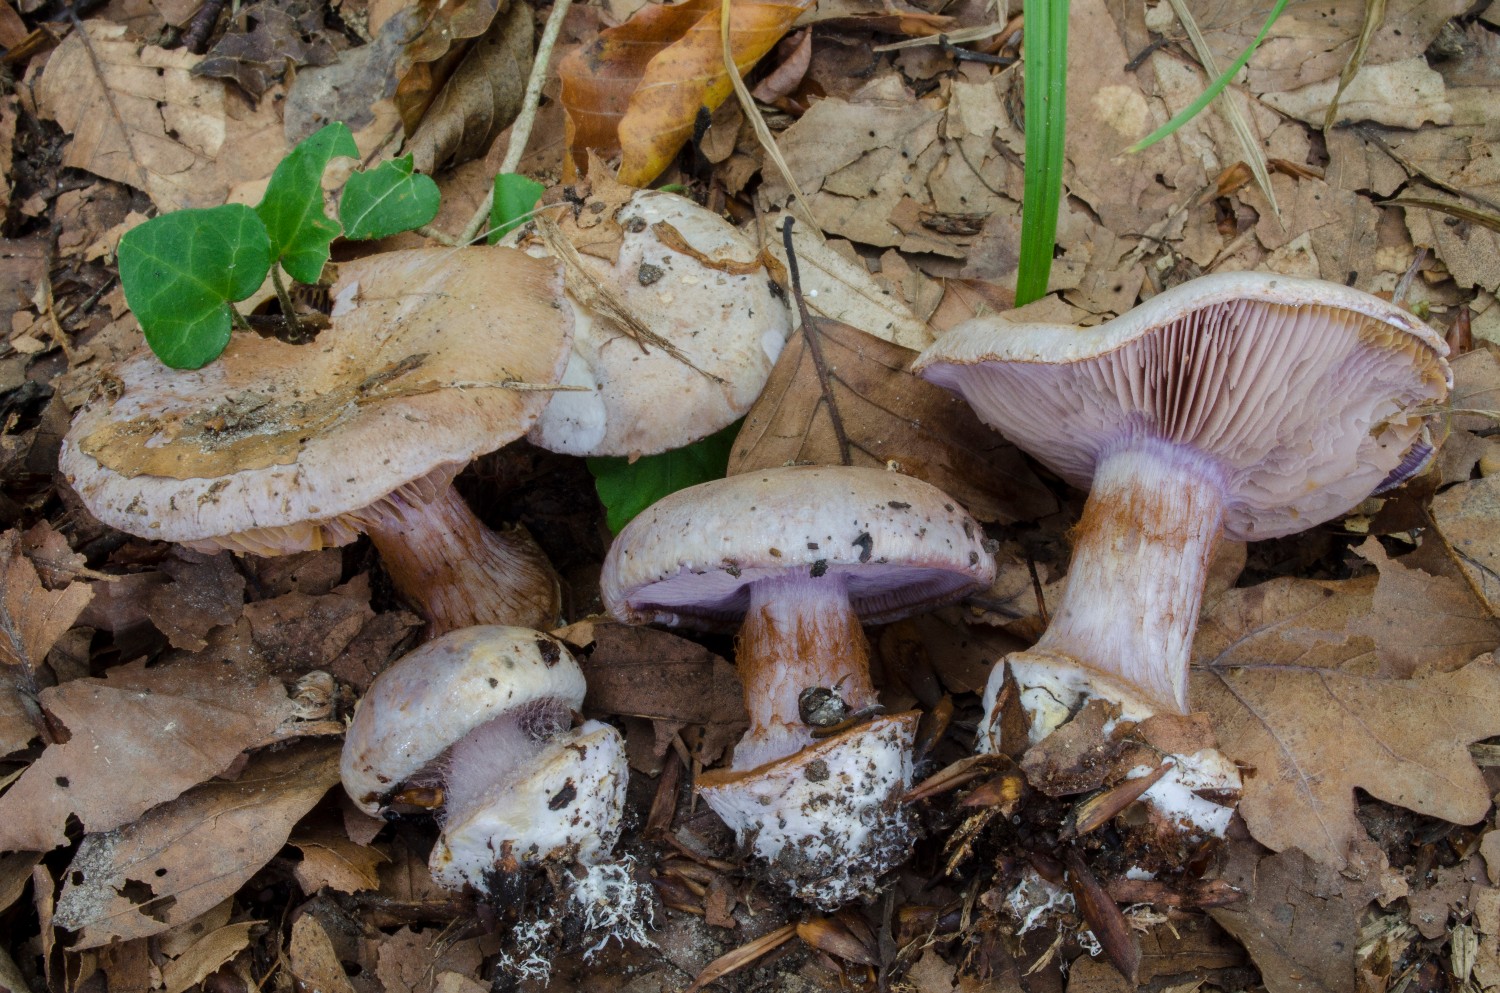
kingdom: Fungi
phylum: Basidiomycota
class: Agaricomycetes
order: Agaricales
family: Cortinariaceae
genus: Calonarius
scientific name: Calonarius violaceipes
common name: stedmoder-slørhat
